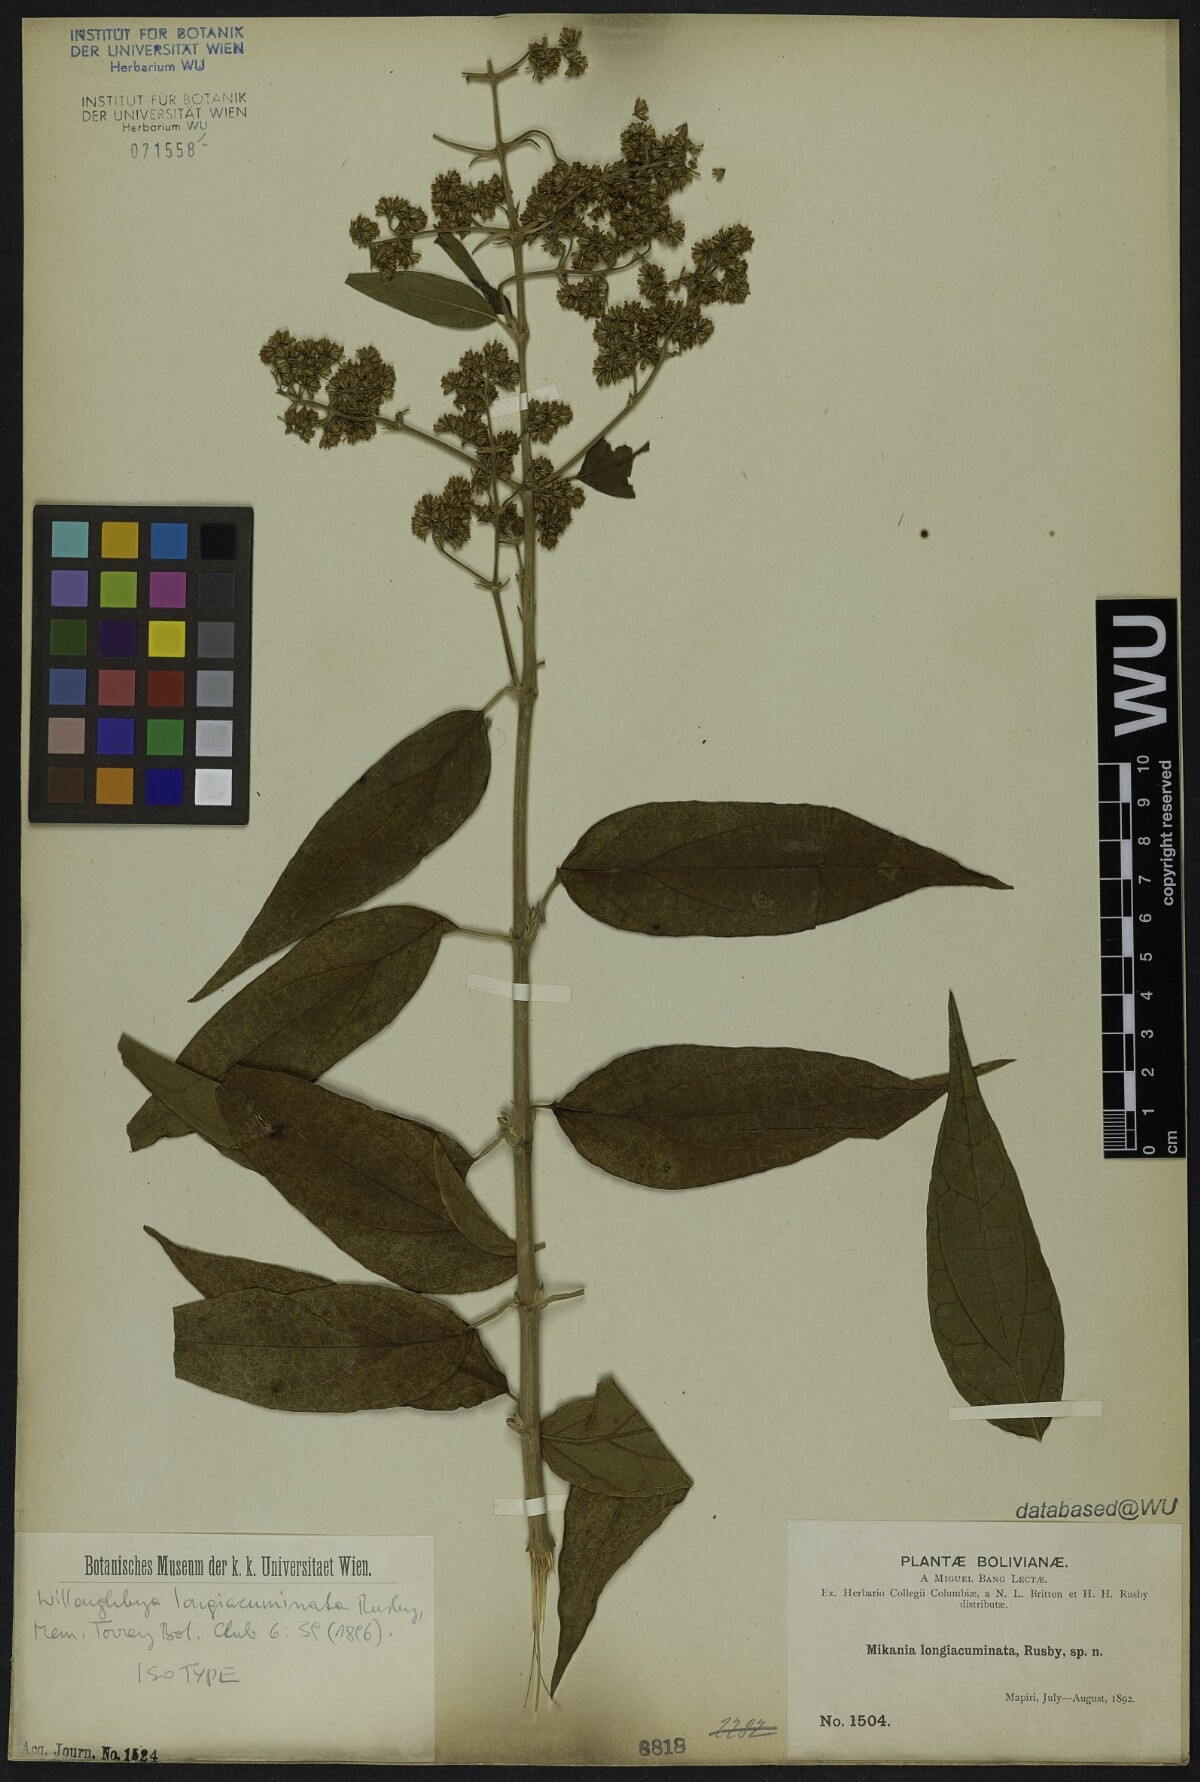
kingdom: Plantae
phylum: Tracheophyta
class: Magnoliopsida
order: Asterales
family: Asteraceae
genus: Mikania
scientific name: Mikania longiacuminata
